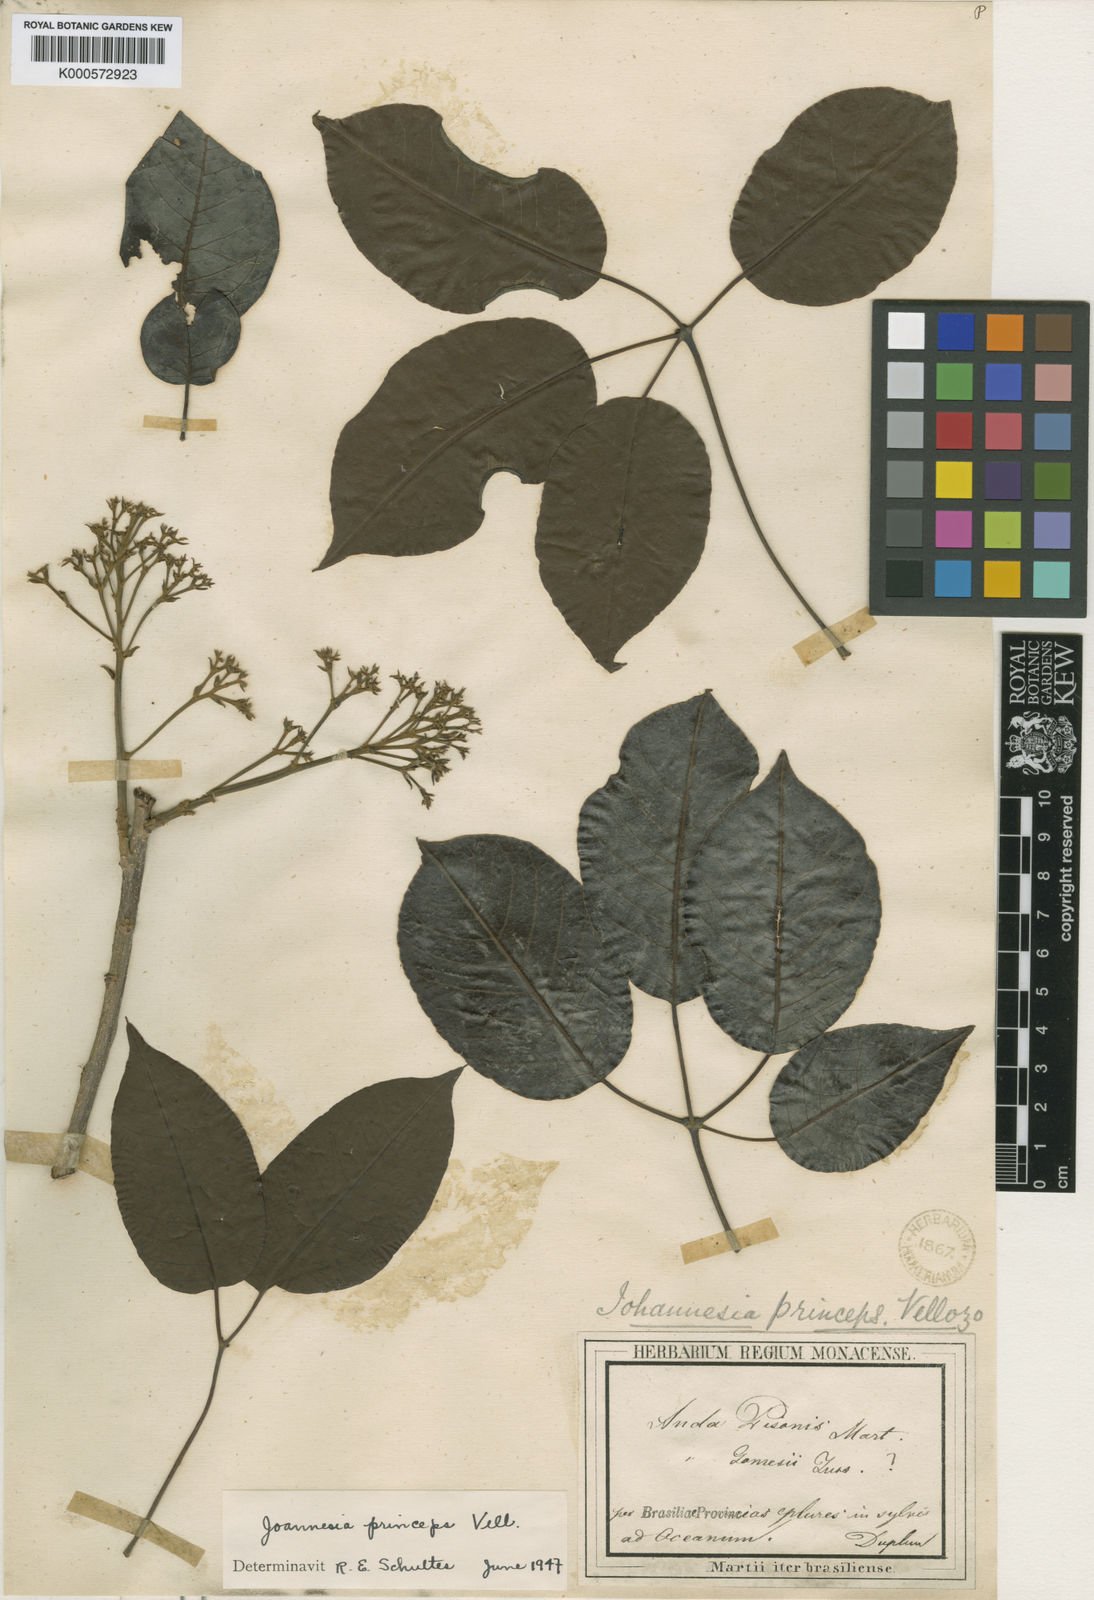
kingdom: Plantae
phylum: Tracheophyta
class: Magnoliopsida
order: Malpighiales
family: Euphorbiaceae
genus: Joannesia
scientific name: Joannesia princeps
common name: Arara nut-tree
